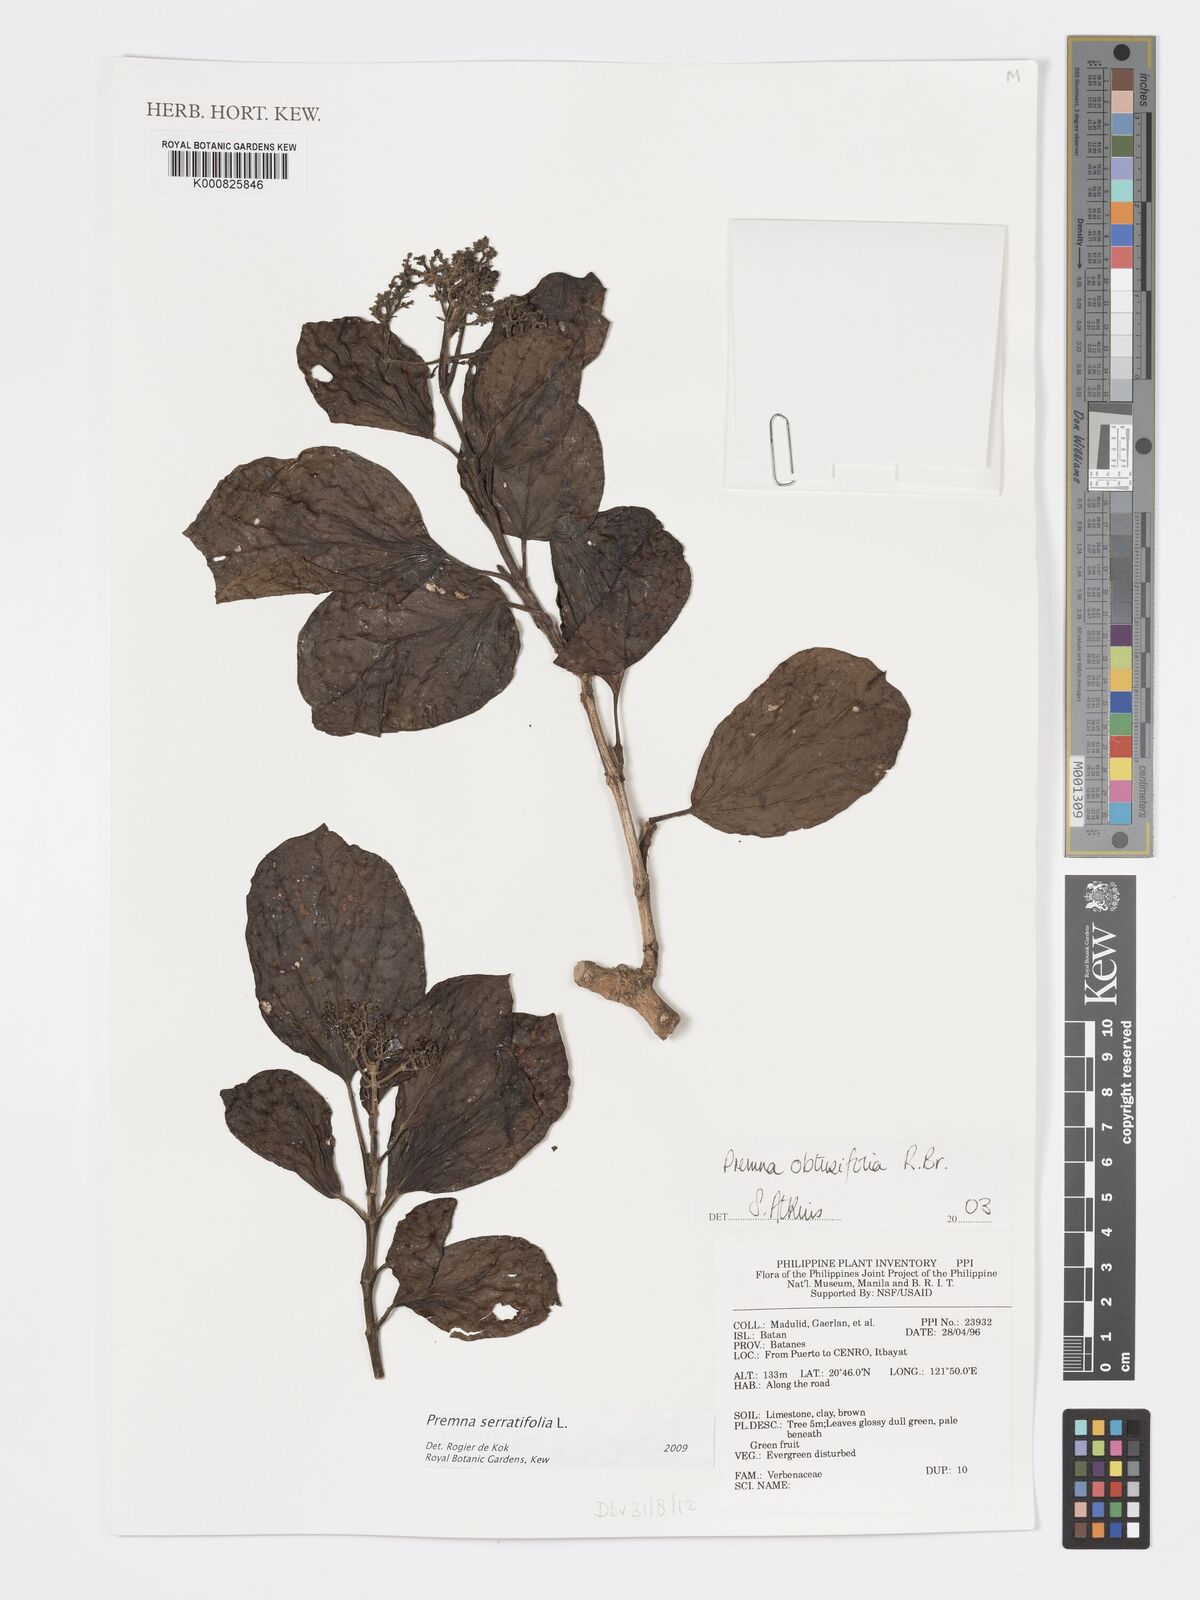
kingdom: Plantae
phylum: Tracheophyta
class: Magnoliopsida
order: Lamiales
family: Lamiaceae
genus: Premna
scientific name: Premna serratifolia
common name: Bastard guelder
